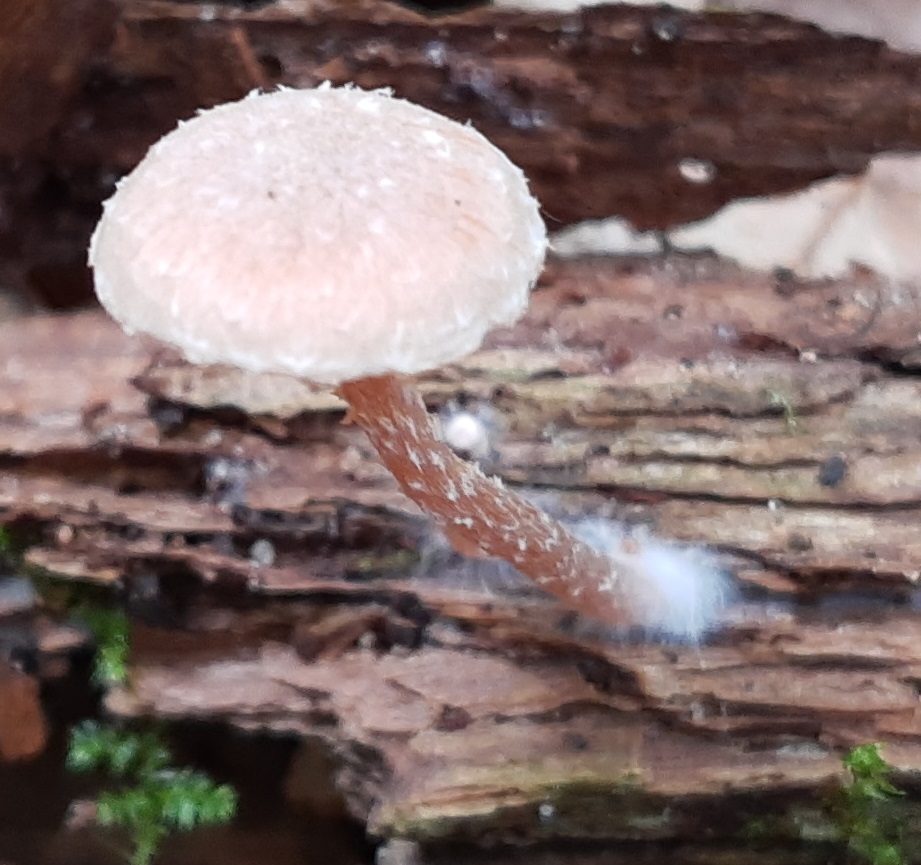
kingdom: Fungi
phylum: Basidiomycota
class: Agaricomycetes
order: Agaricales
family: Tubariaceae
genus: Tubaria
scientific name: Tubaria conspersa
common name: bleg fnughat
